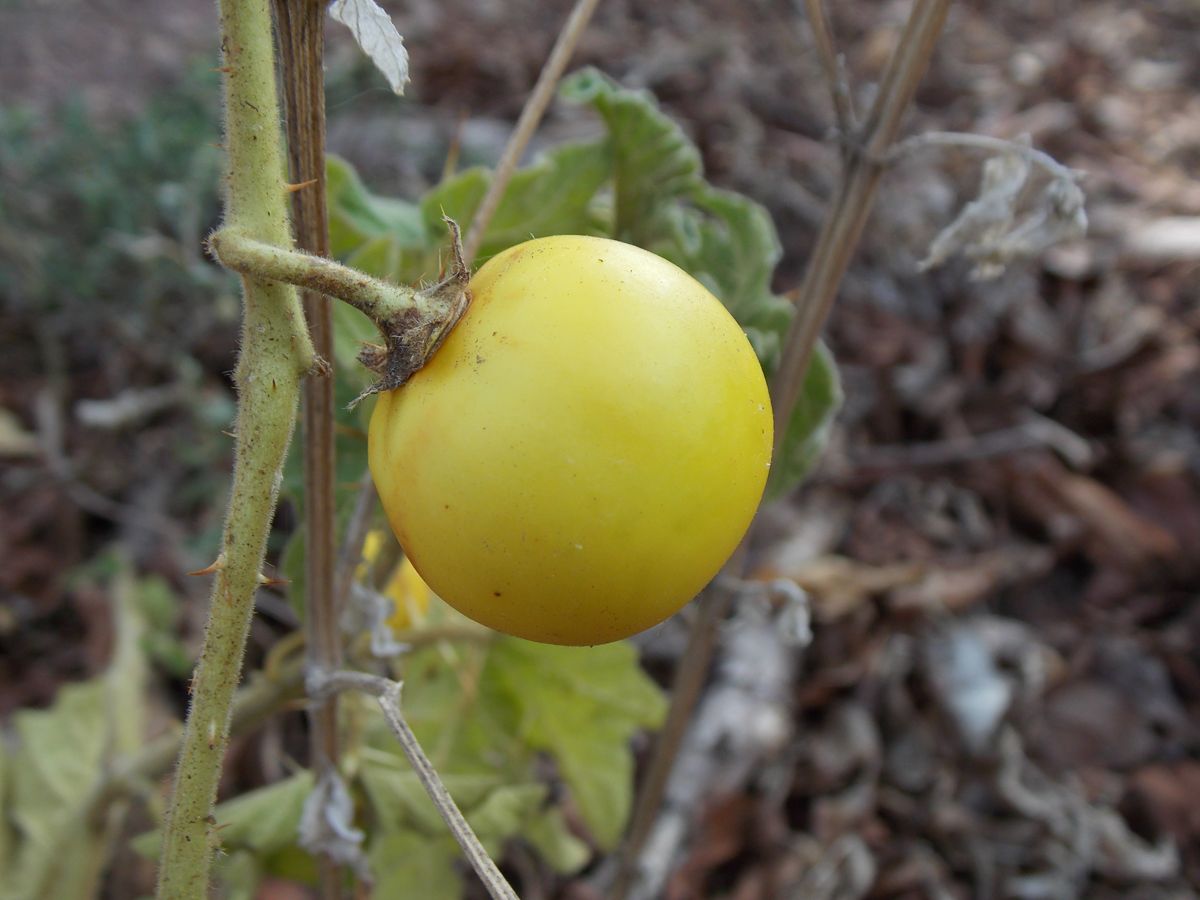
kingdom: Plantae
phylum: Tracheophyta
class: Magnoliopsida
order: Solanales
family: Solanaceae
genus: Solanum
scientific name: Solanum myriacanthum
